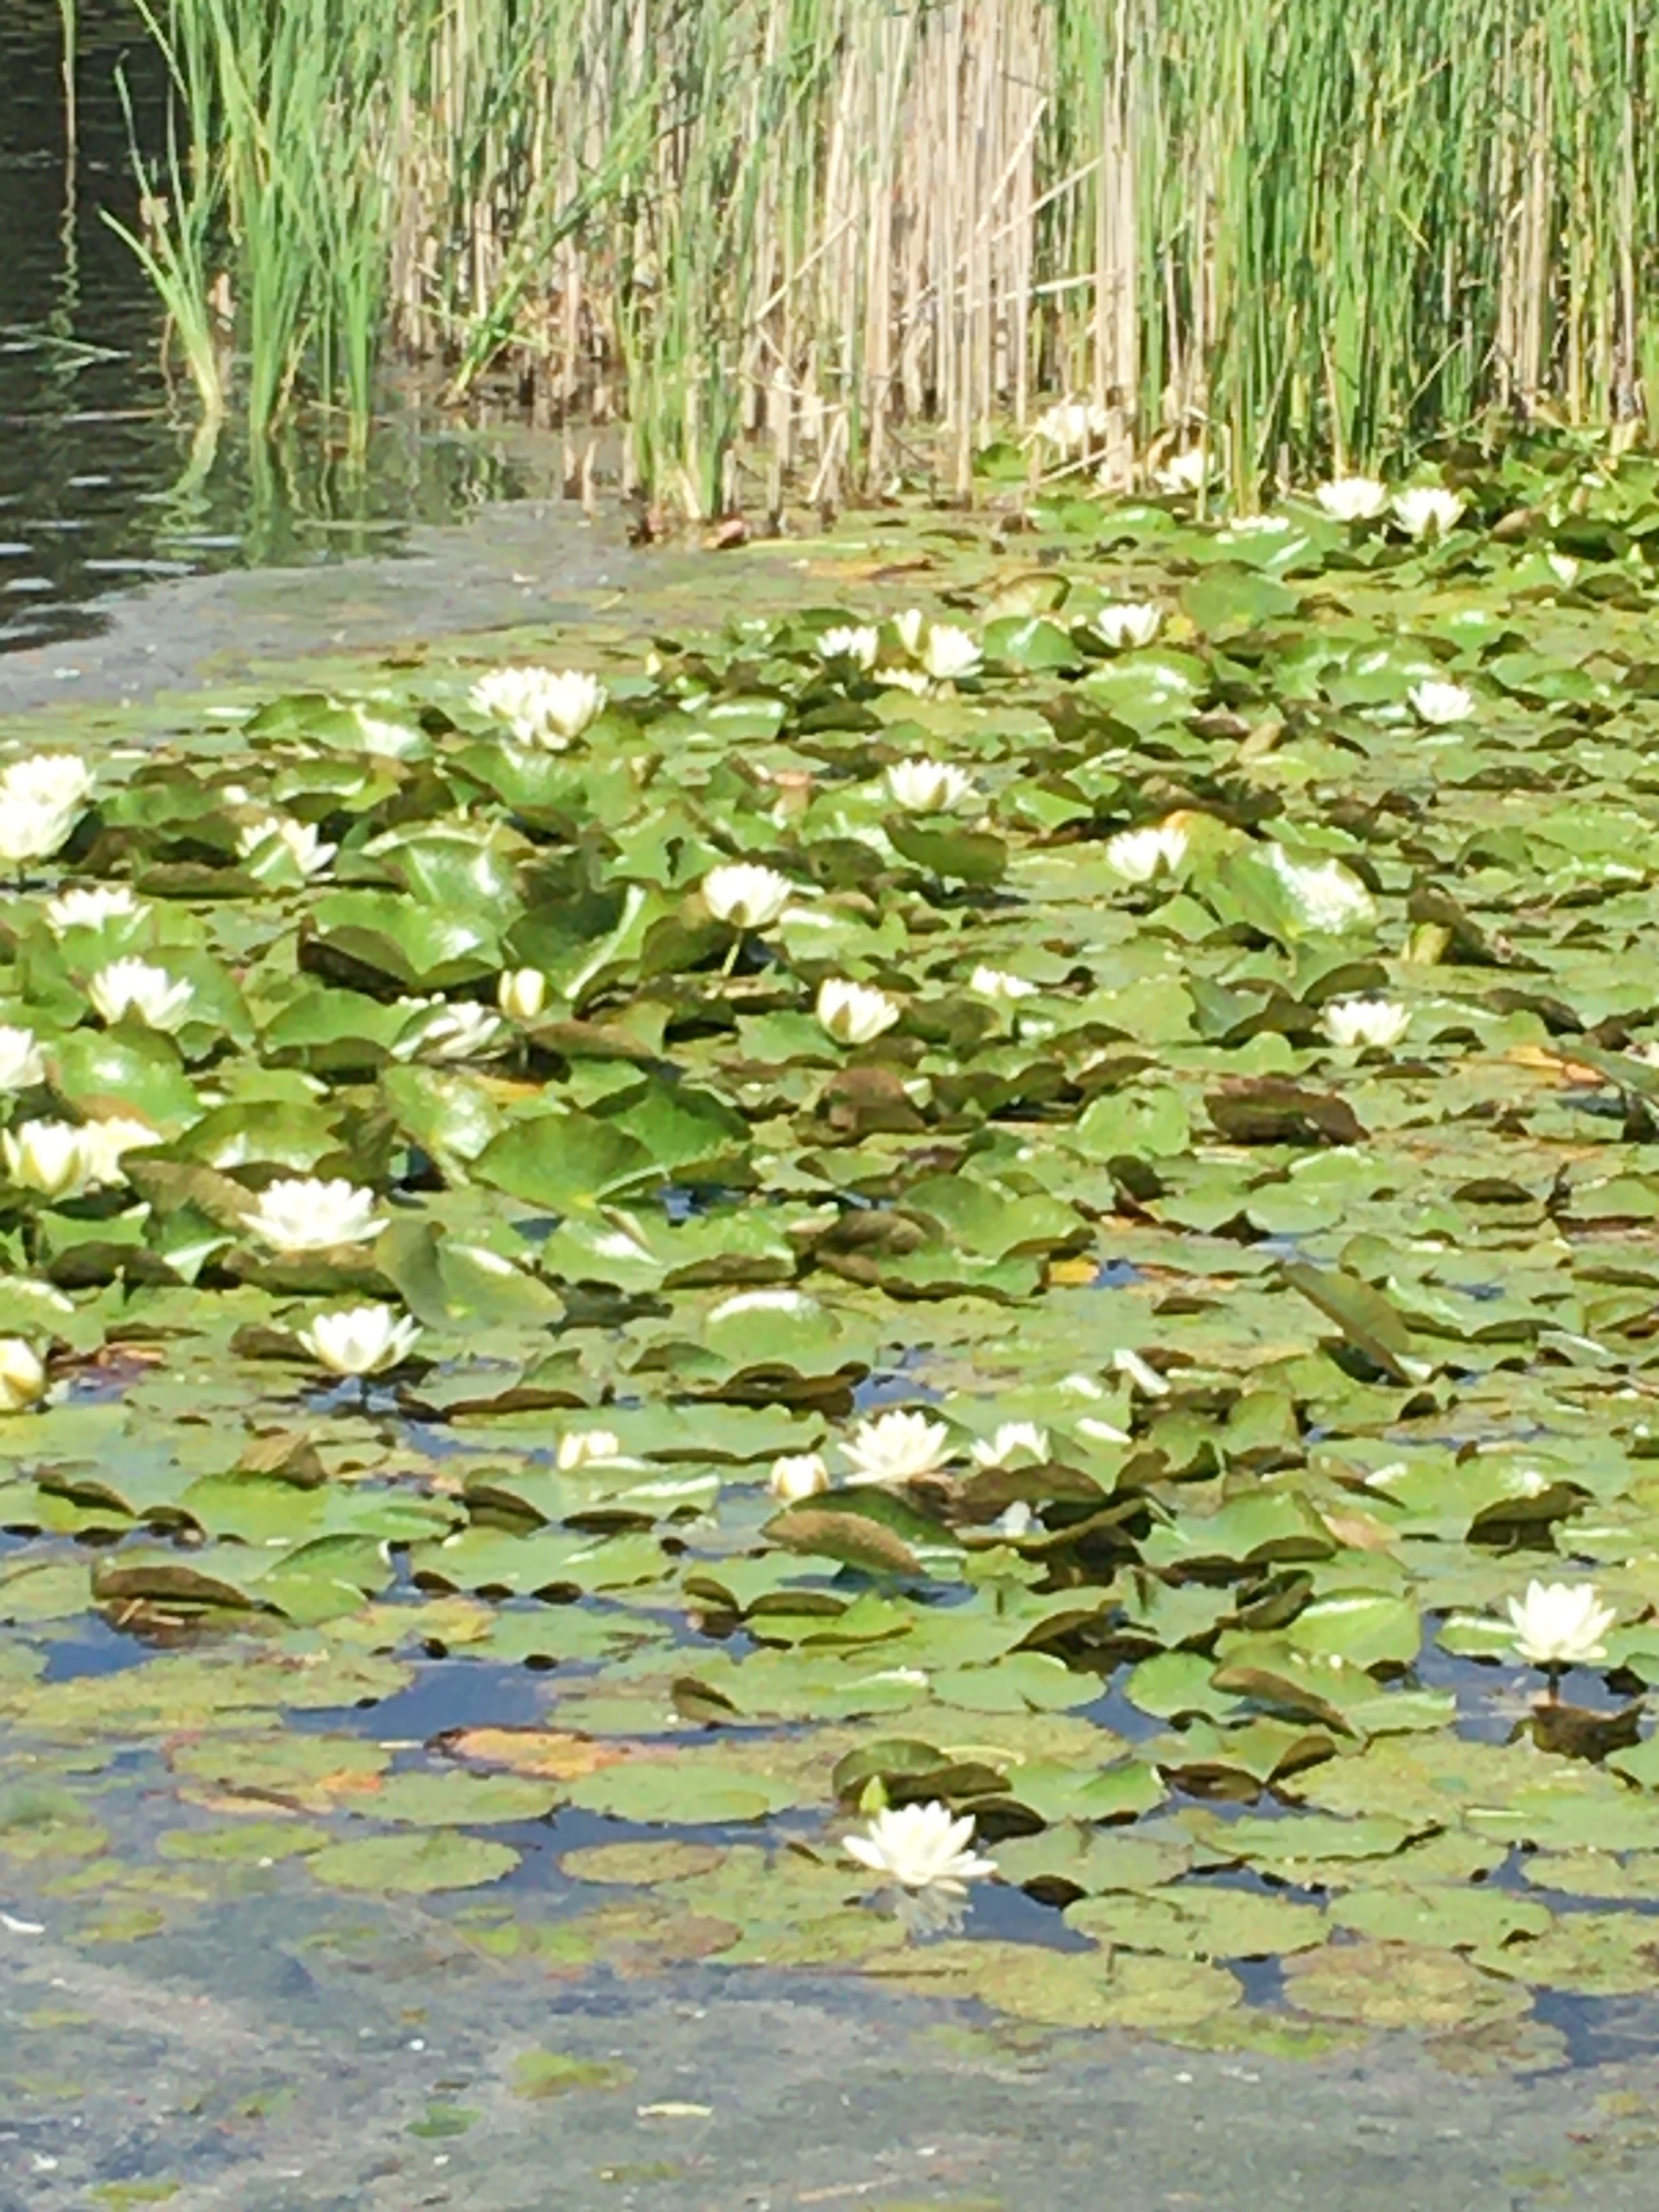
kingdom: Plantae
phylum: Tracheophyta
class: Magnoliopsida
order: Nymphaeales
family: Nymphaeaceae
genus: Nymphaea
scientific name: Nymphaea alba
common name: Hvid åkande
